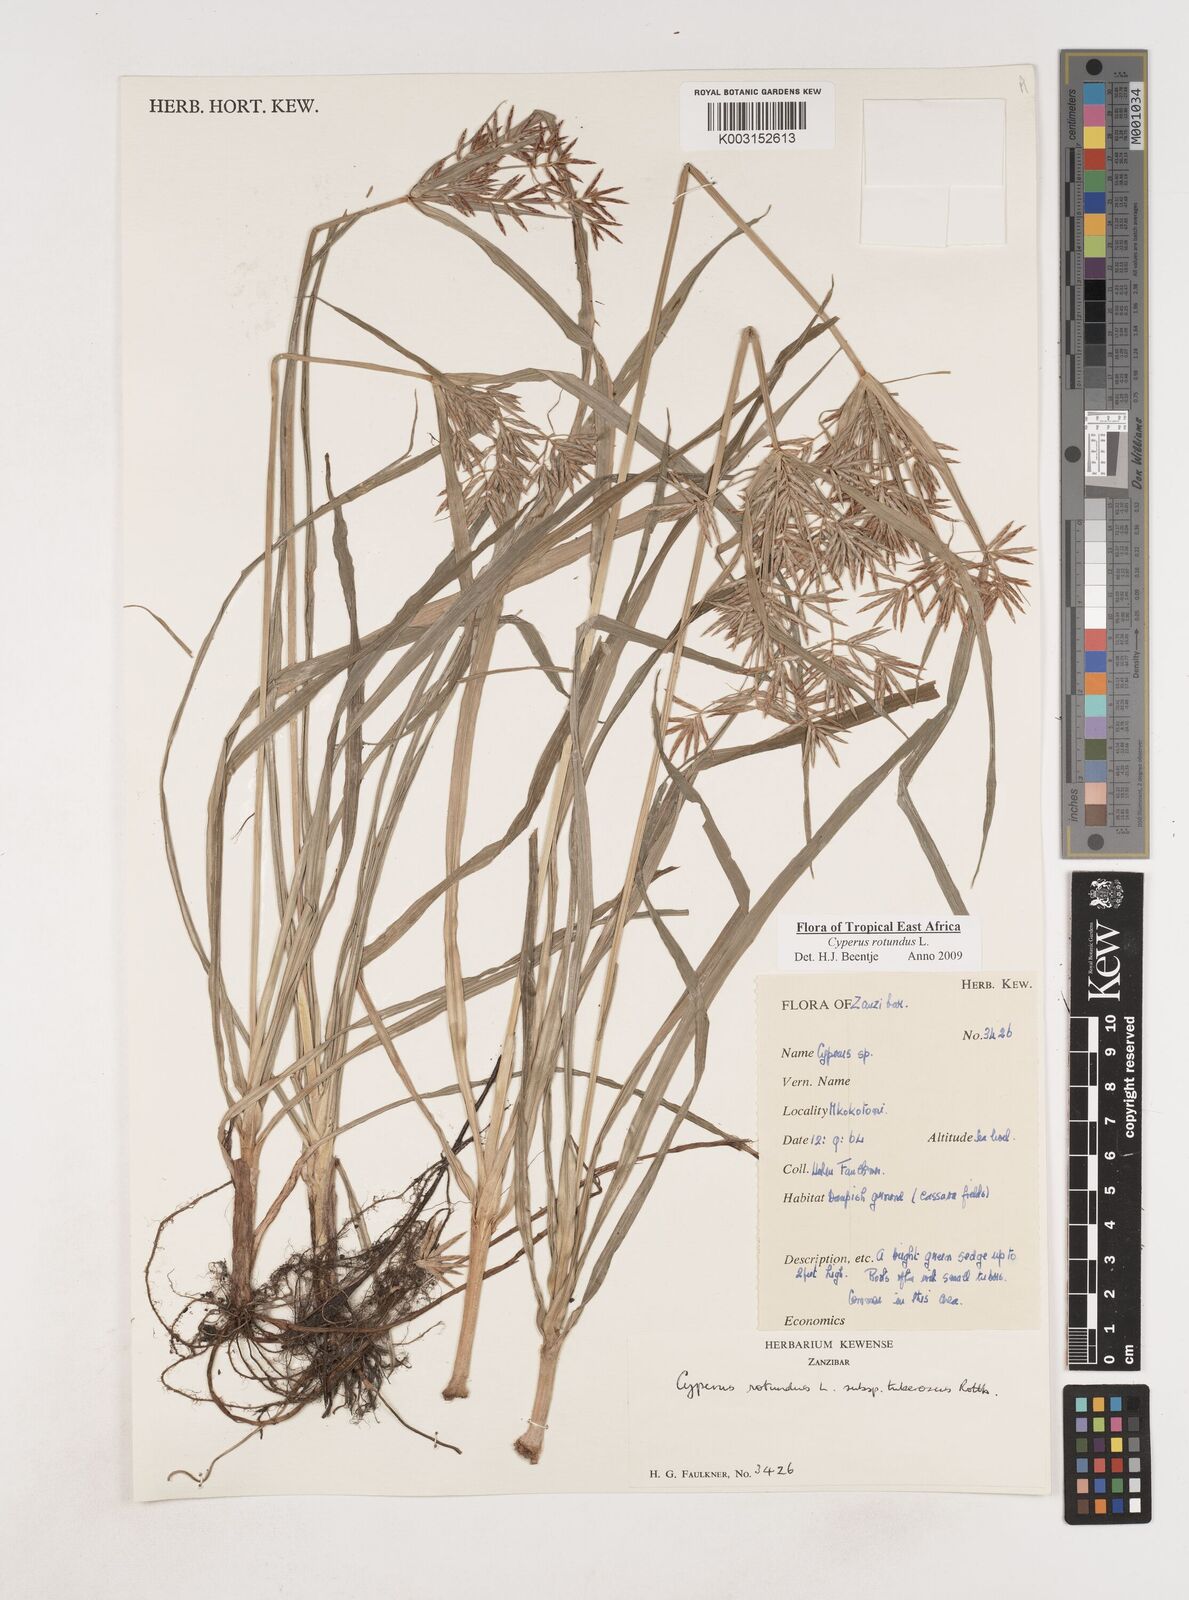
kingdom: Plantae
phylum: Tracheophyta
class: Liliopsida
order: Poales
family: Cyperaceae
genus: Cyperus
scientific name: Cyperus rotundus
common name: Nutgrass
